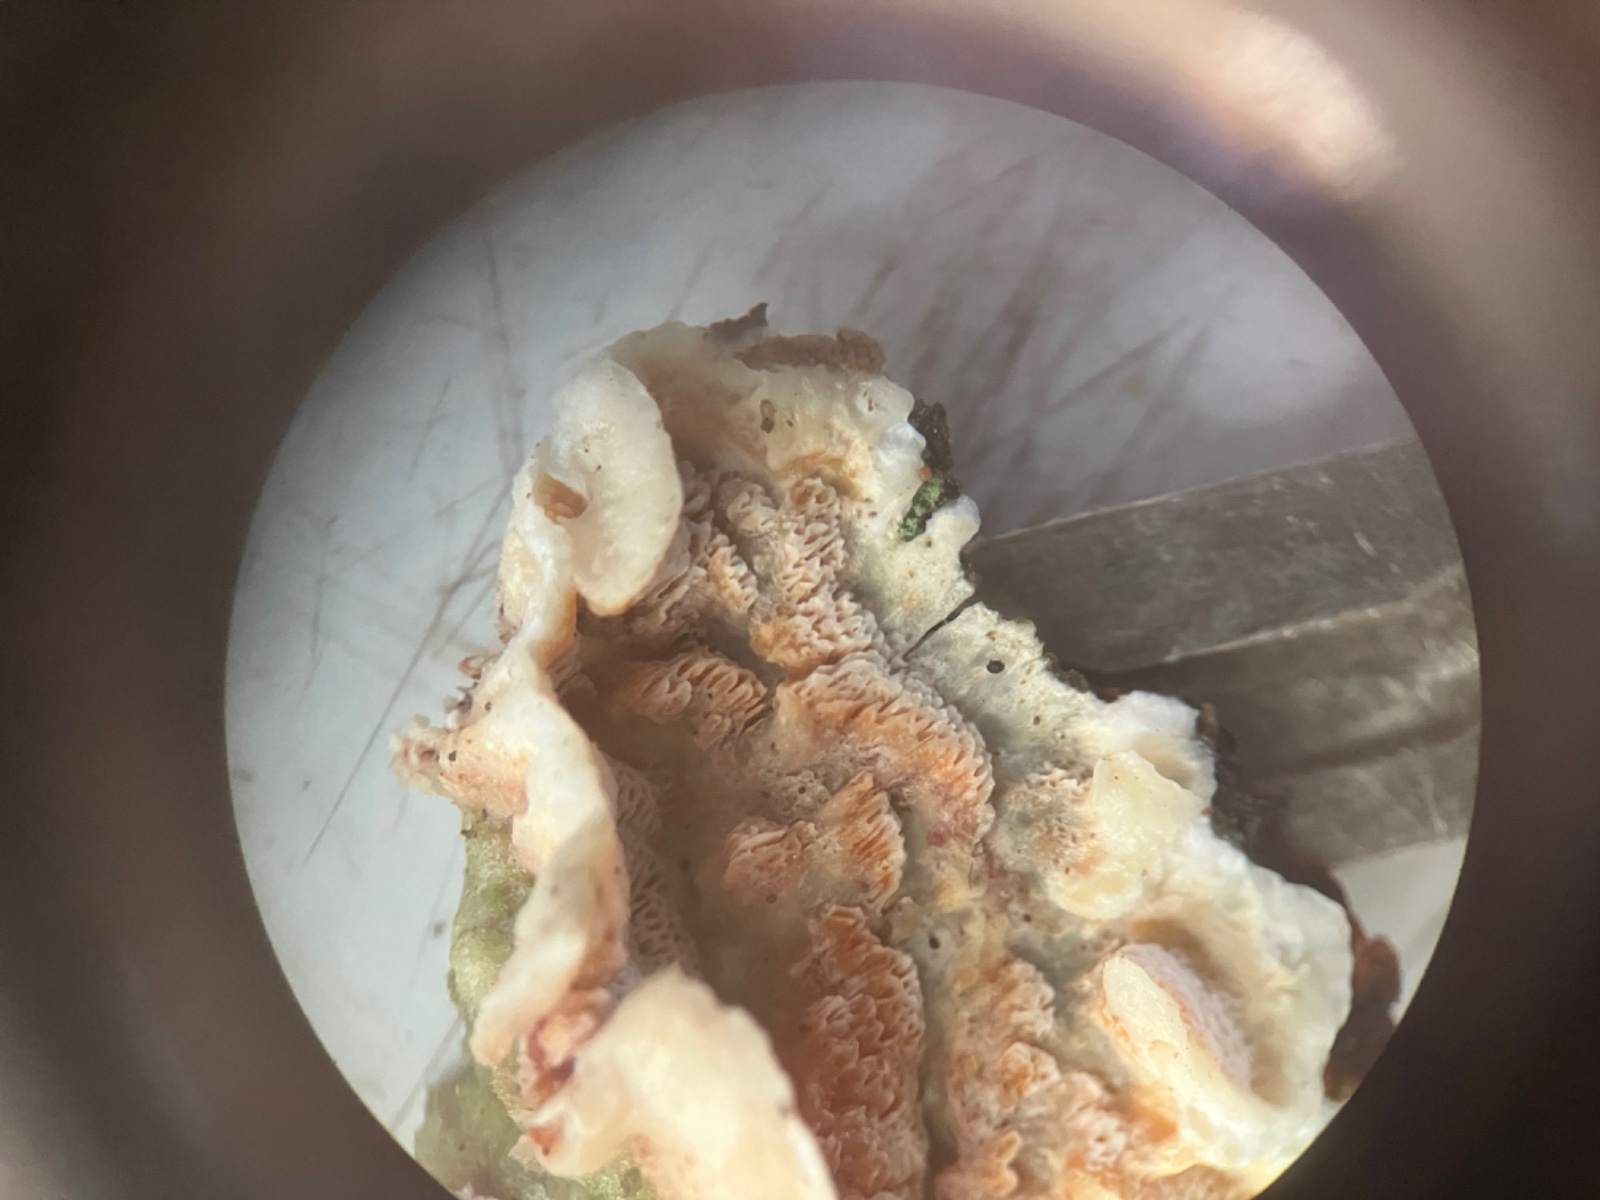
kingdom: Fungi
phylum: Basidiomycota
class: Agaricomycetes
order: Polyporales
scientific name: Polyporales
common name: poresvampordenen
